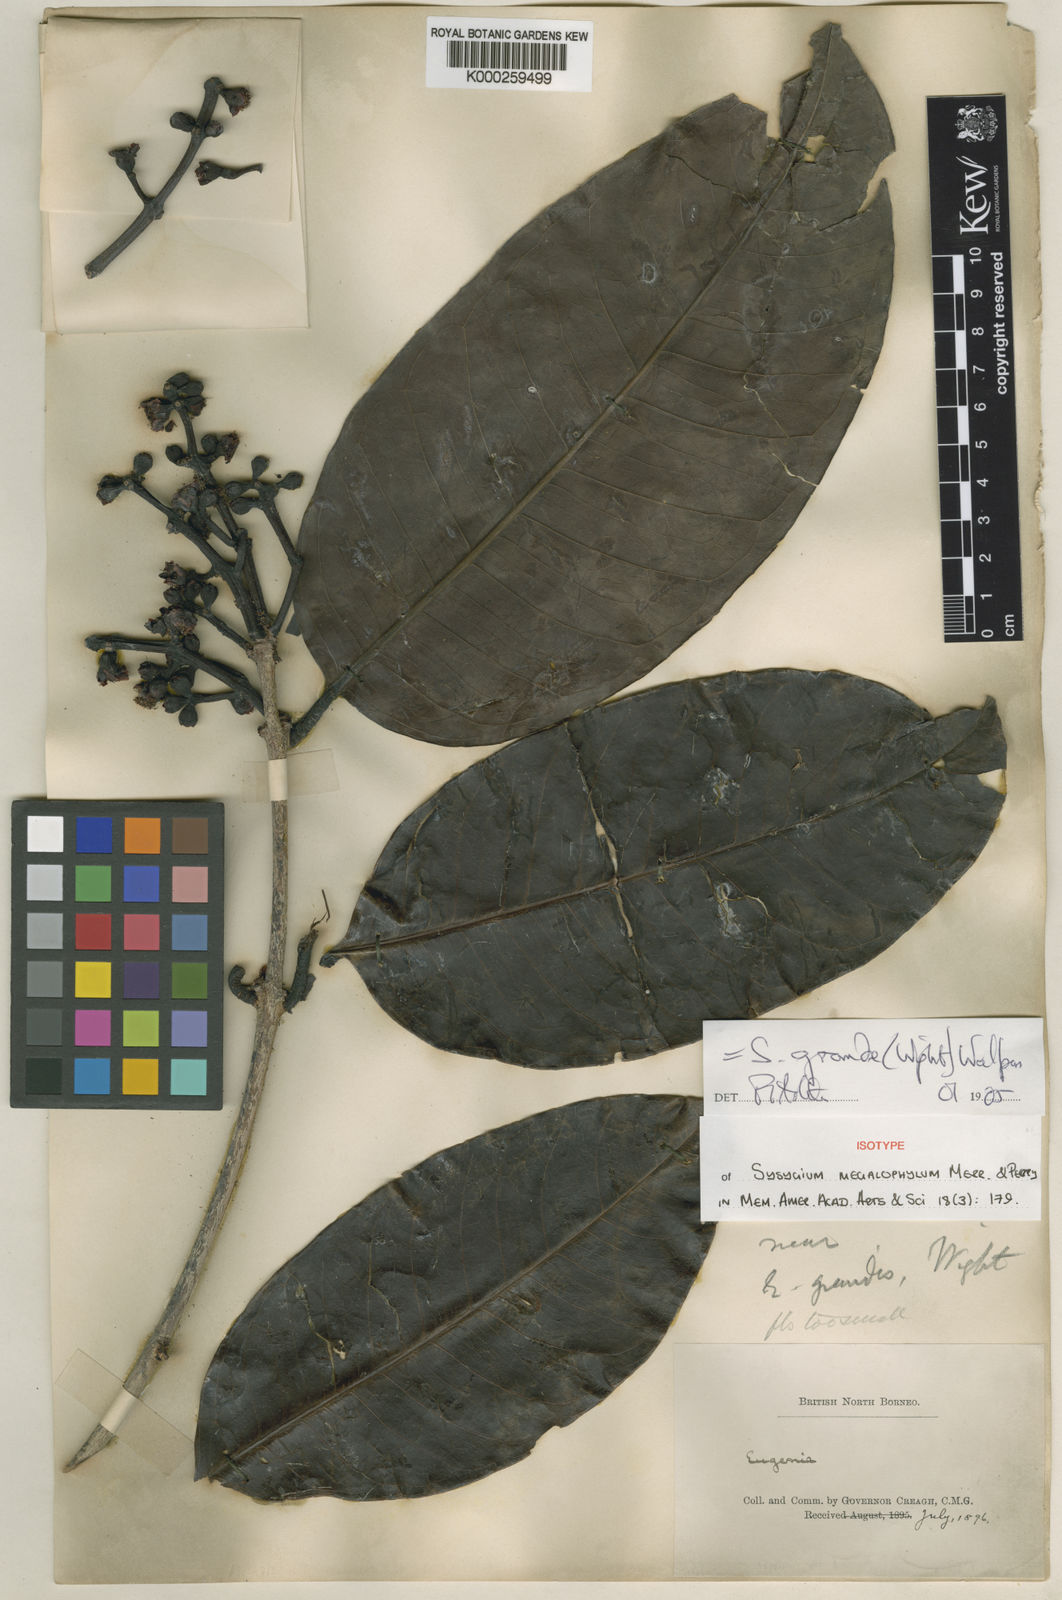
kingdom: Plantae
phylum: Tracheophyta
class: Magnoliopsida
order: Myrtales
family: Myrtaceae
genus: Syzygium
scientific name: Syzygium grande
